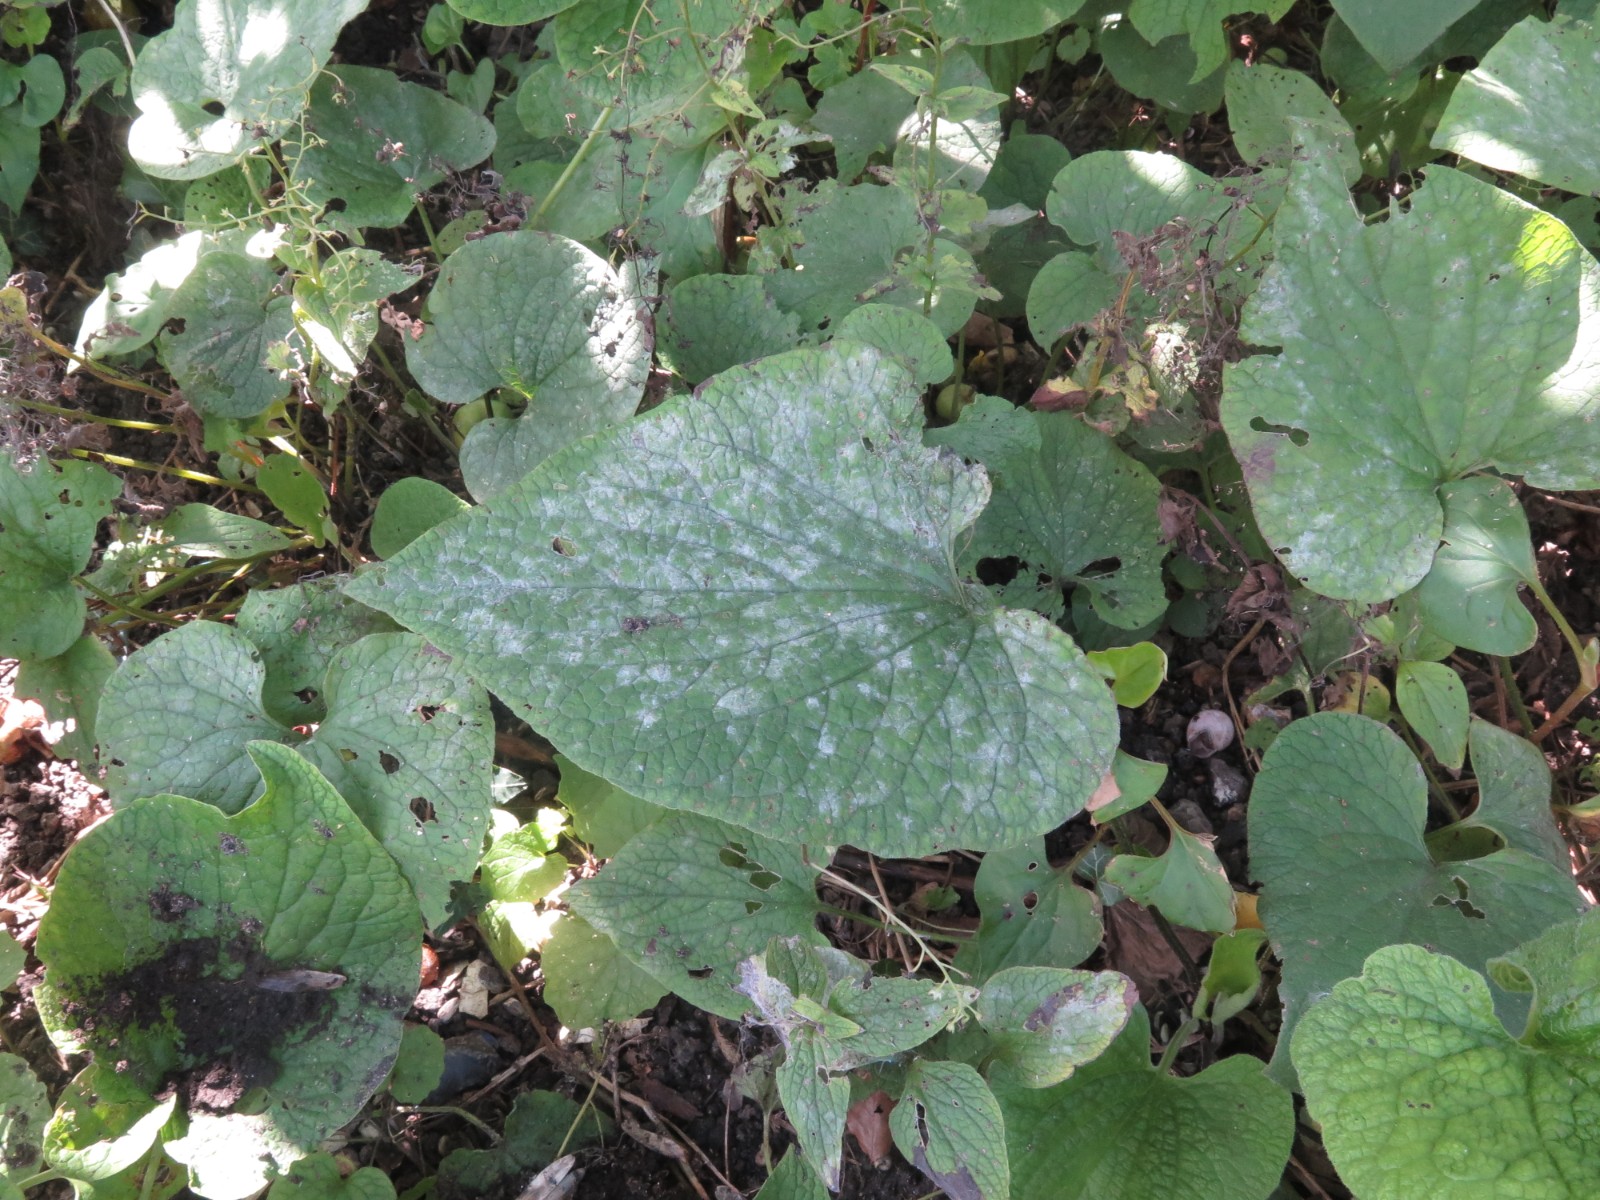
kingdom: Fungi
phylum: Ascomycota
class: Leotiomycetes
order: Helotiales
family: Erysiphaceae
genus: Golovinomyces
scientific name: Golovinomyces
